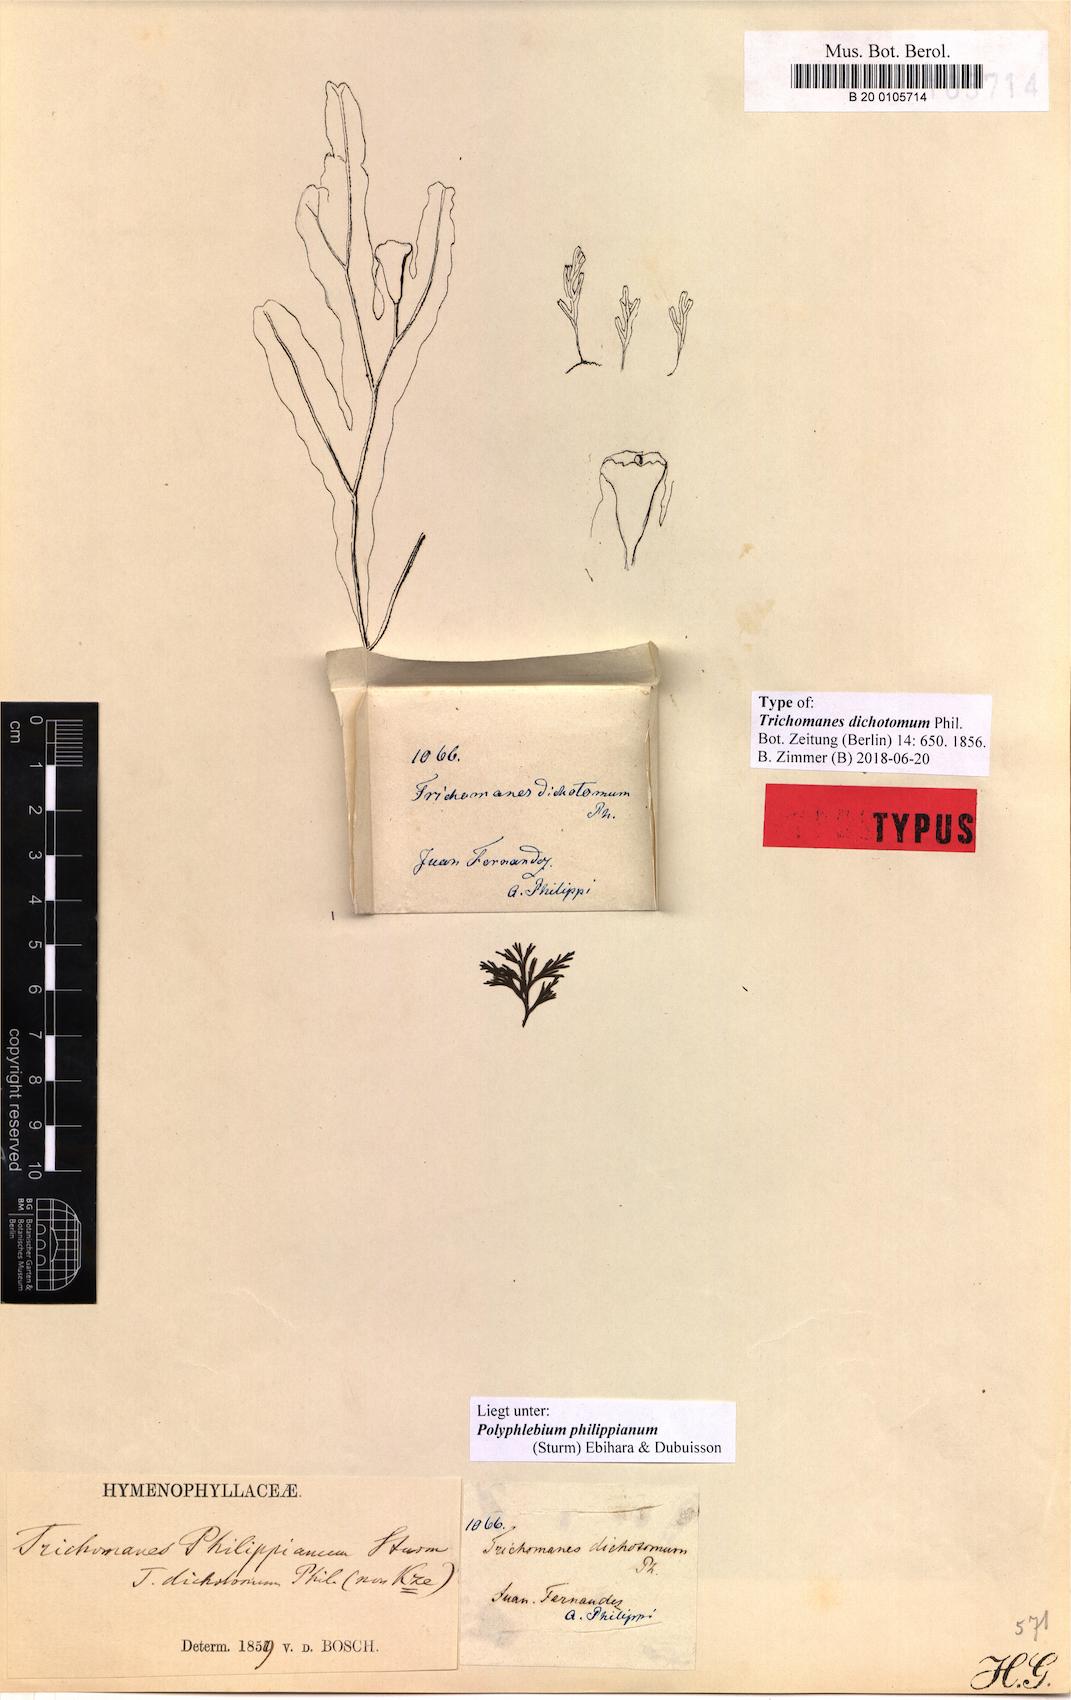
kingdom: Plantae
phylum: Tracheophyta
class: Polypodiopsida
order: Hymenophyllales
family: Hymenophyllaceae
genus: Polyphlebium
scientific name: Polyphlebium philippianum
